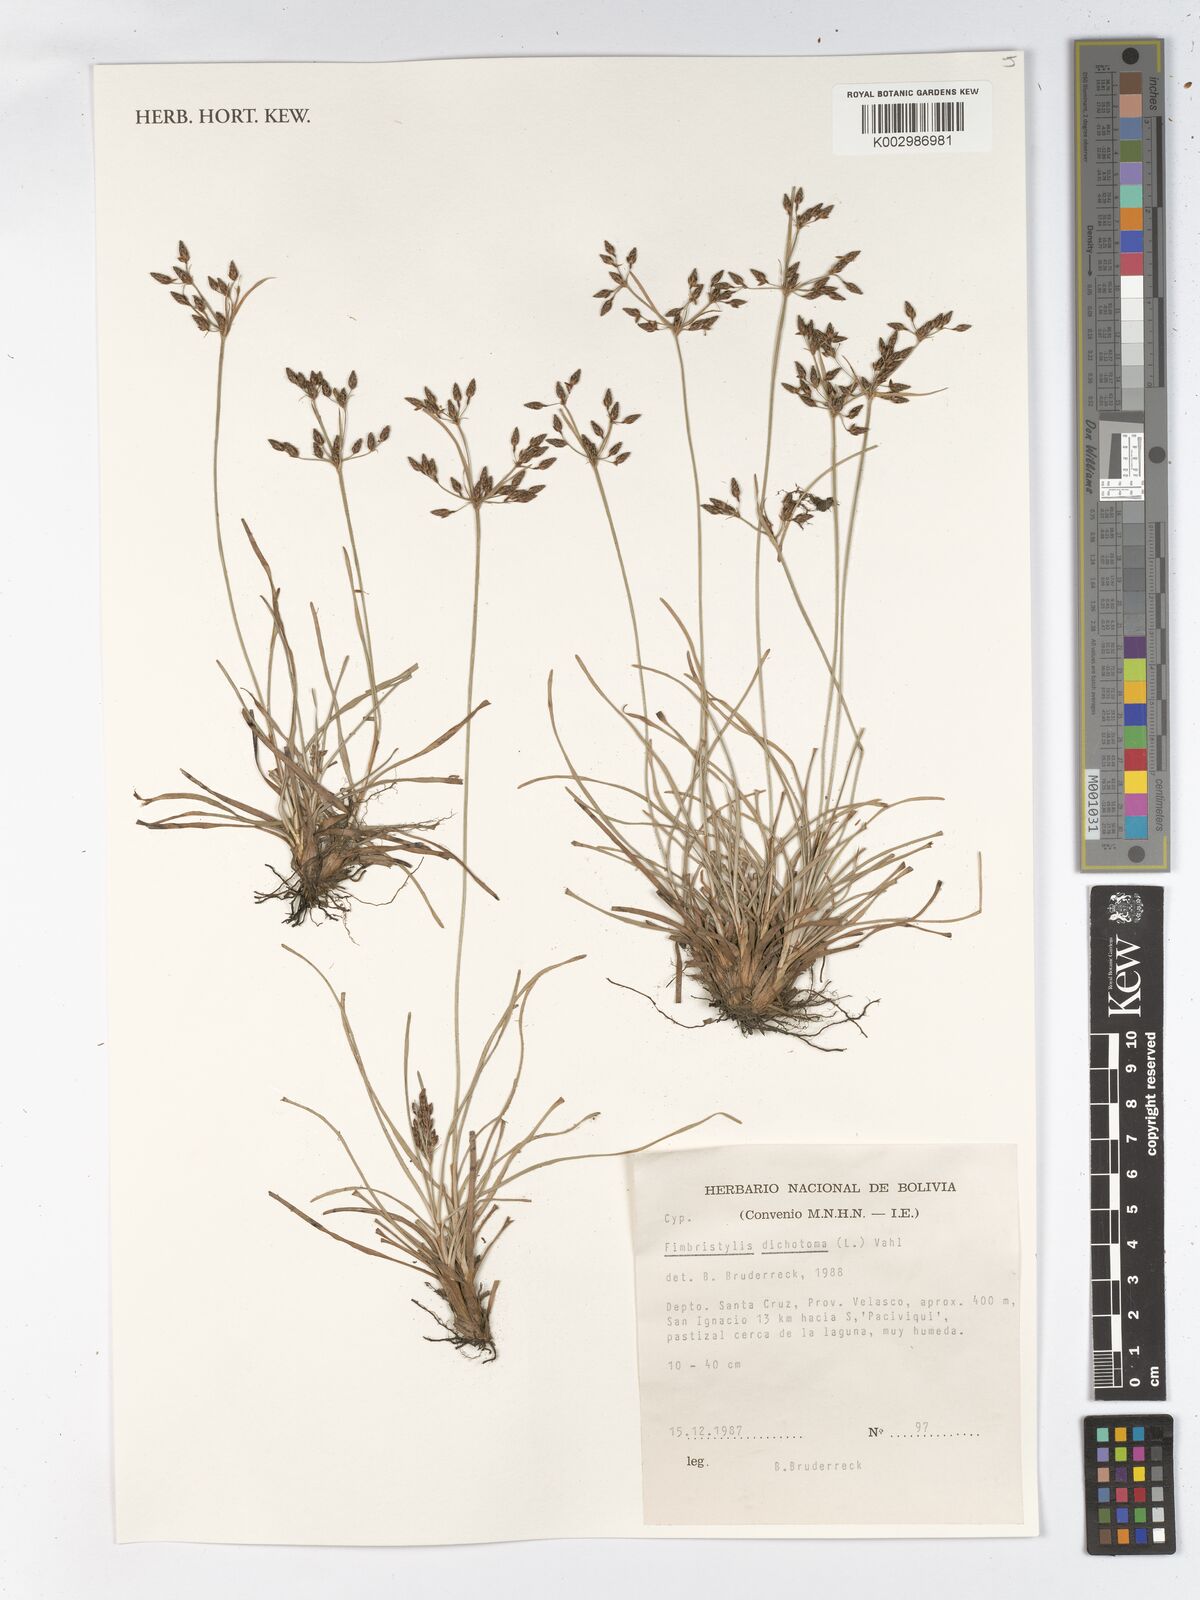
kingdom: Plantae
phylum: Tracheophyta
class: Liliopsida
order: Poales
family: Cyperaceae
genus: Fimbristylis
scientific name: Fimbristylis dichotoma
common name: Forked fimbry
